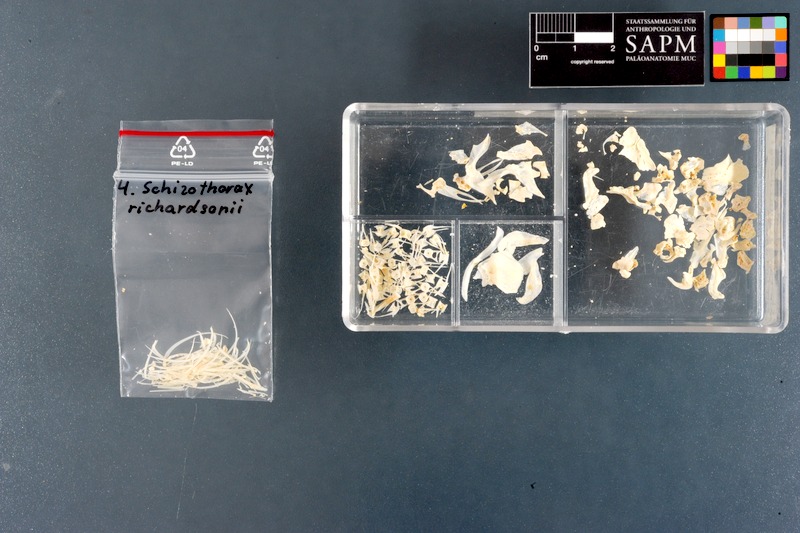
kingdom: Animalia
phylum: Chordata
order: Cypriniformes
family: Cyprinidae
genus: Schizothorax
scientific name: Schizothorax richardsonii
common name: Alawan snowtrout
